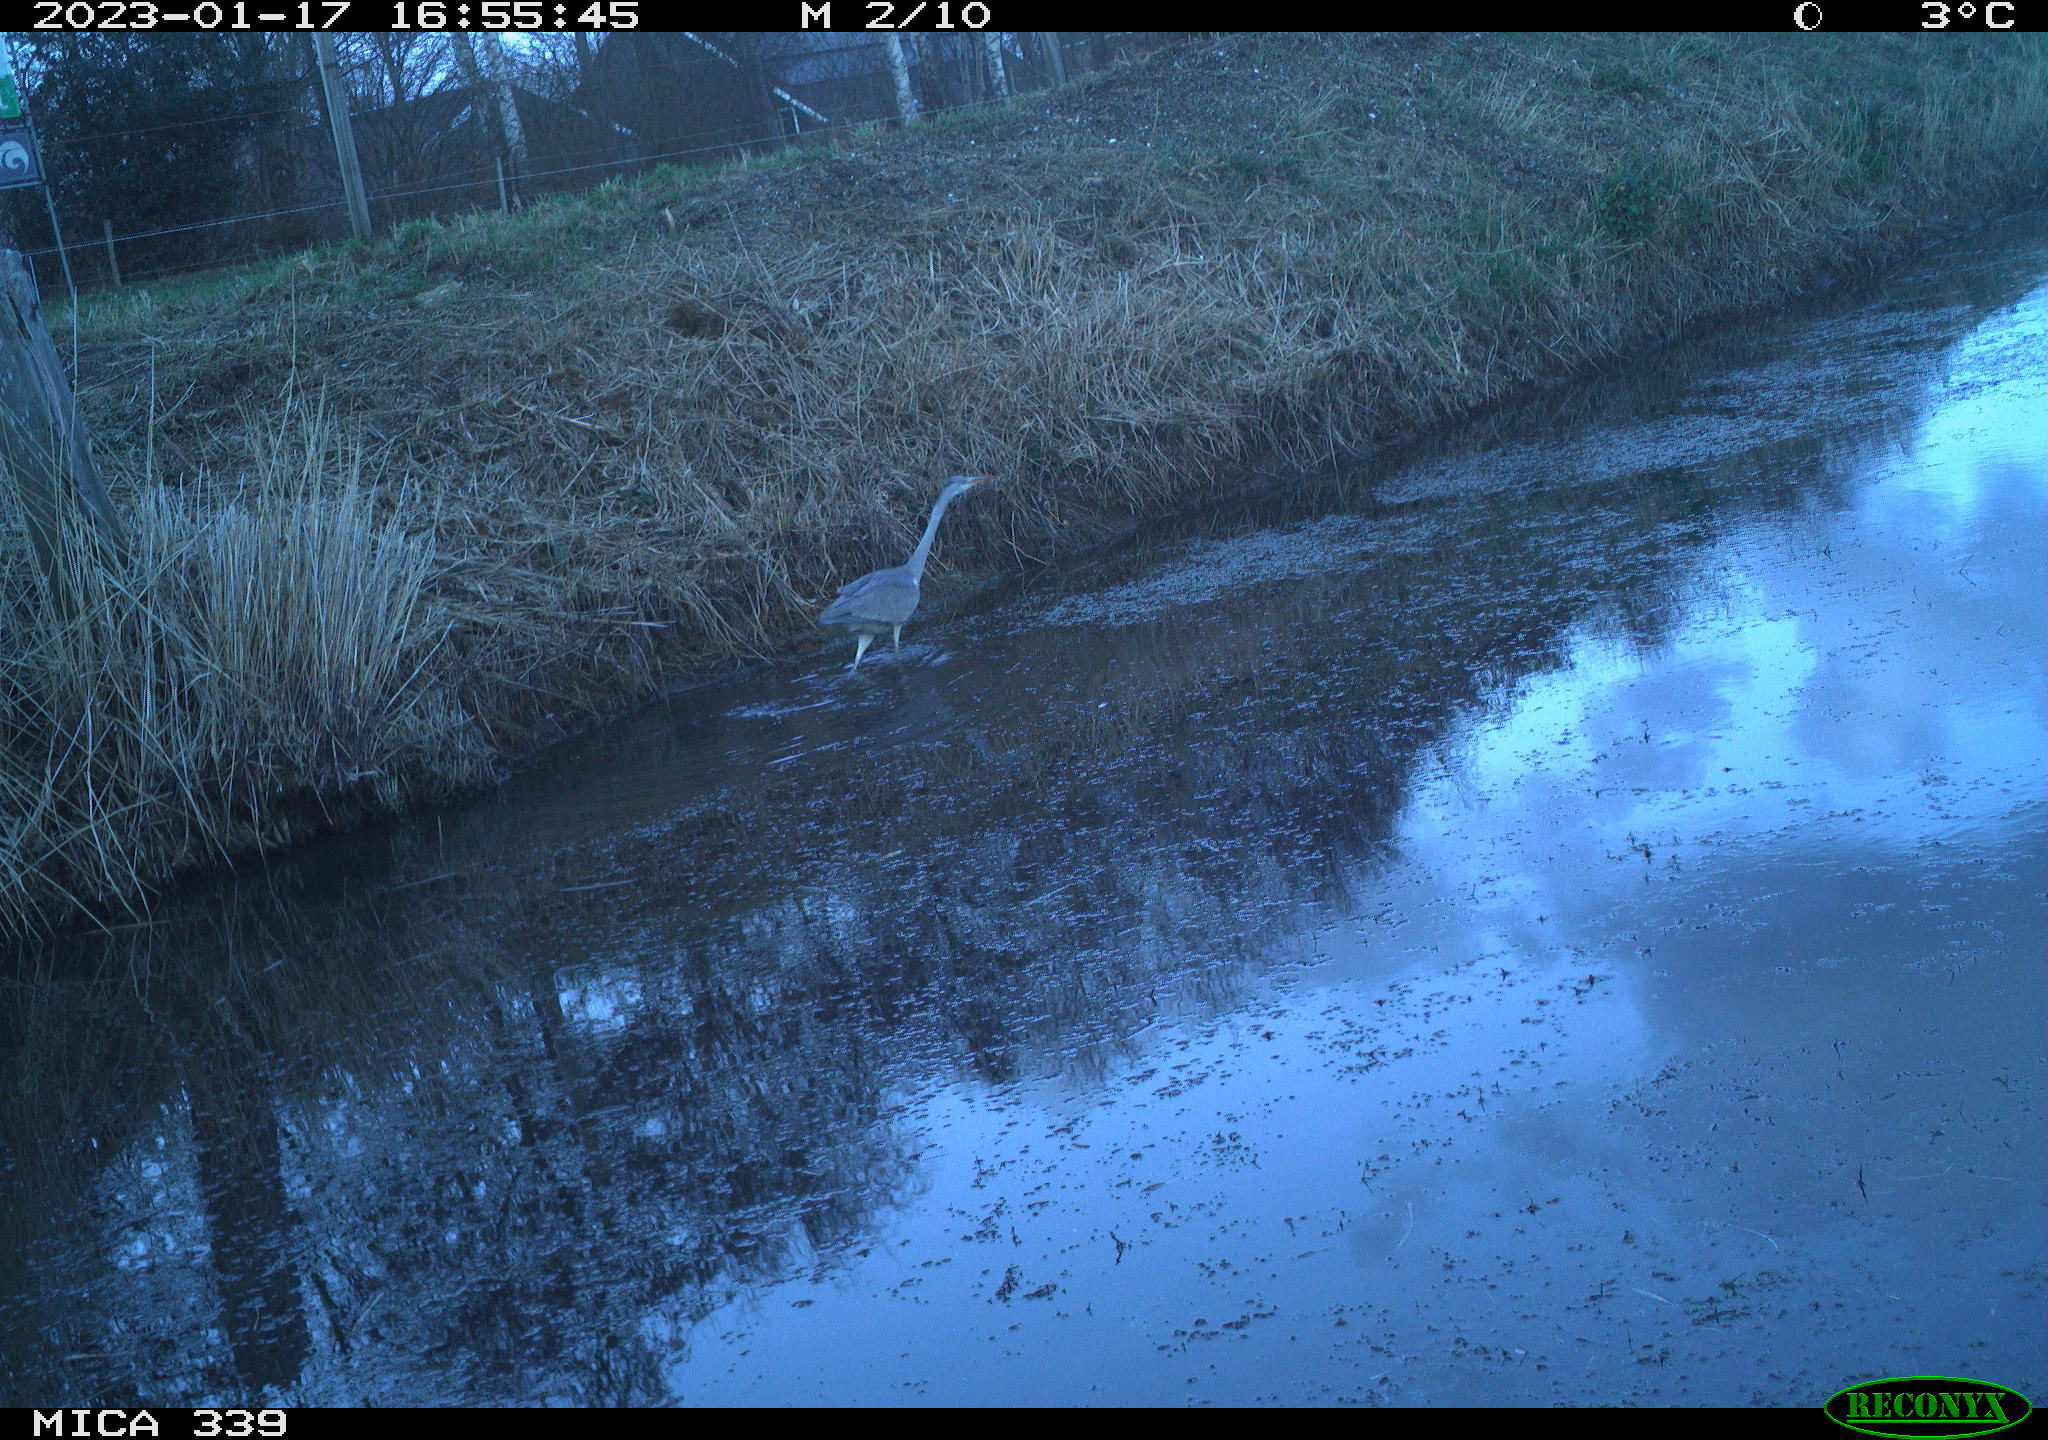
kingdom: Animalia
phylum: Chordata
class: Aves
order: Pelecaniformes
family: Ardeidae
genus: Ardea
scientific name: Ardea cinerea
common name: Grey heron
